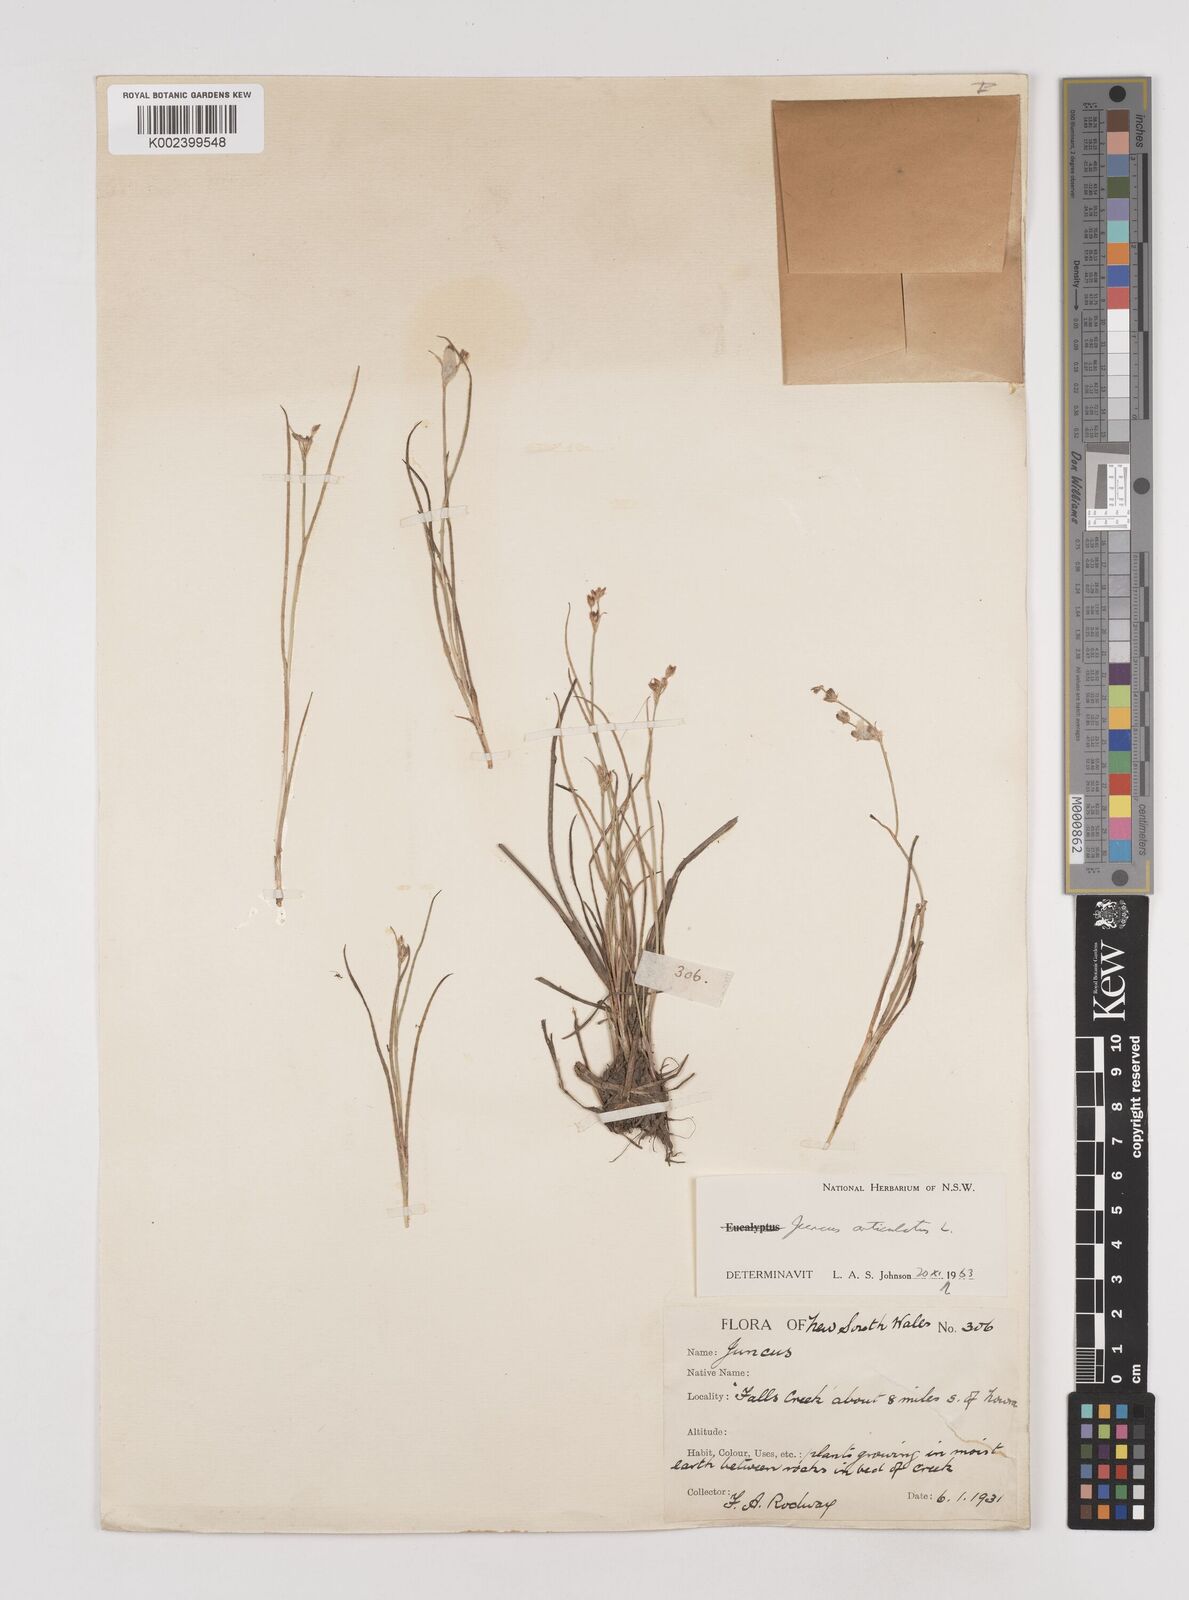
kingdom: Plantae
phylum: Tracheophyta
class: Liliopsida
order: Poales
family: Juncaceae
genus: Juncus
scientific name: Juncus articulatus
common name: Jointed rush
